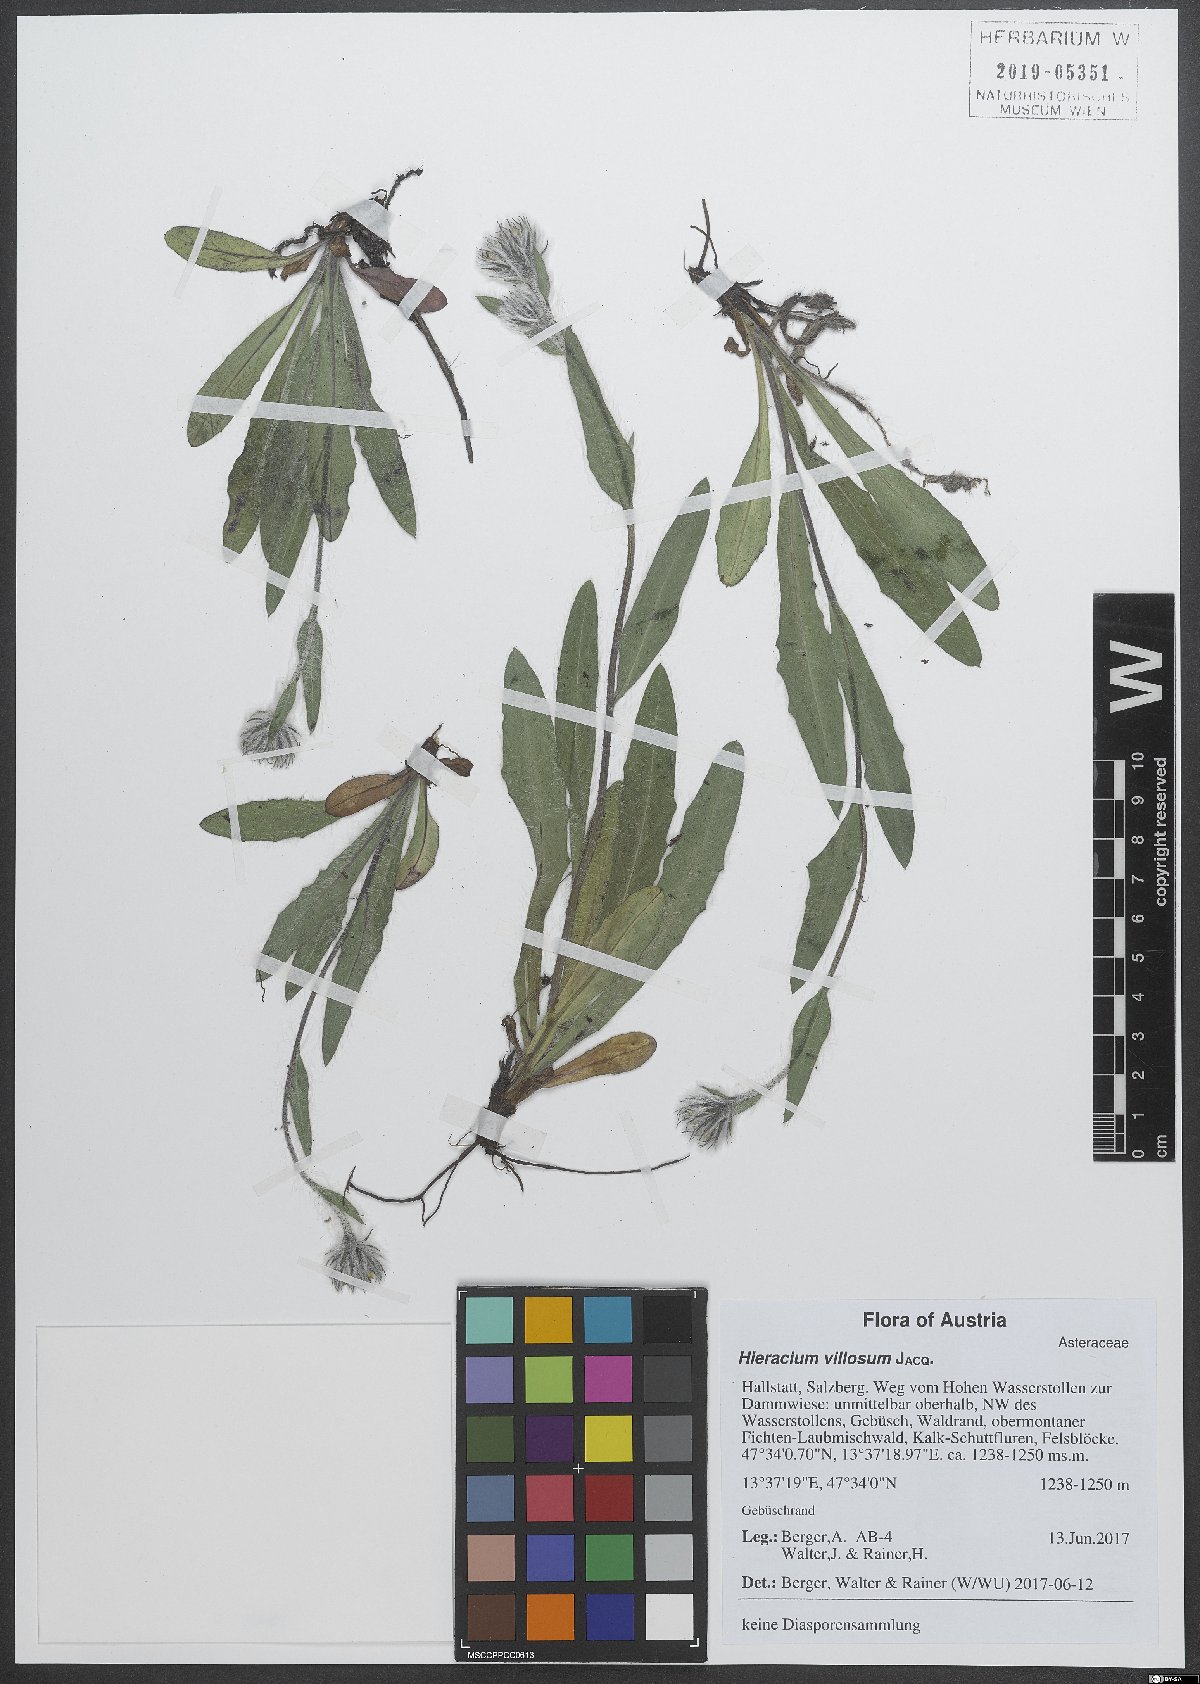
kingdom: Plantae
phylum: Tracheophyta
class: Magnoliopsida
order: Asterales
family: Asteraceae
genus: Hieracium
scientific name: Hieracium villosum
